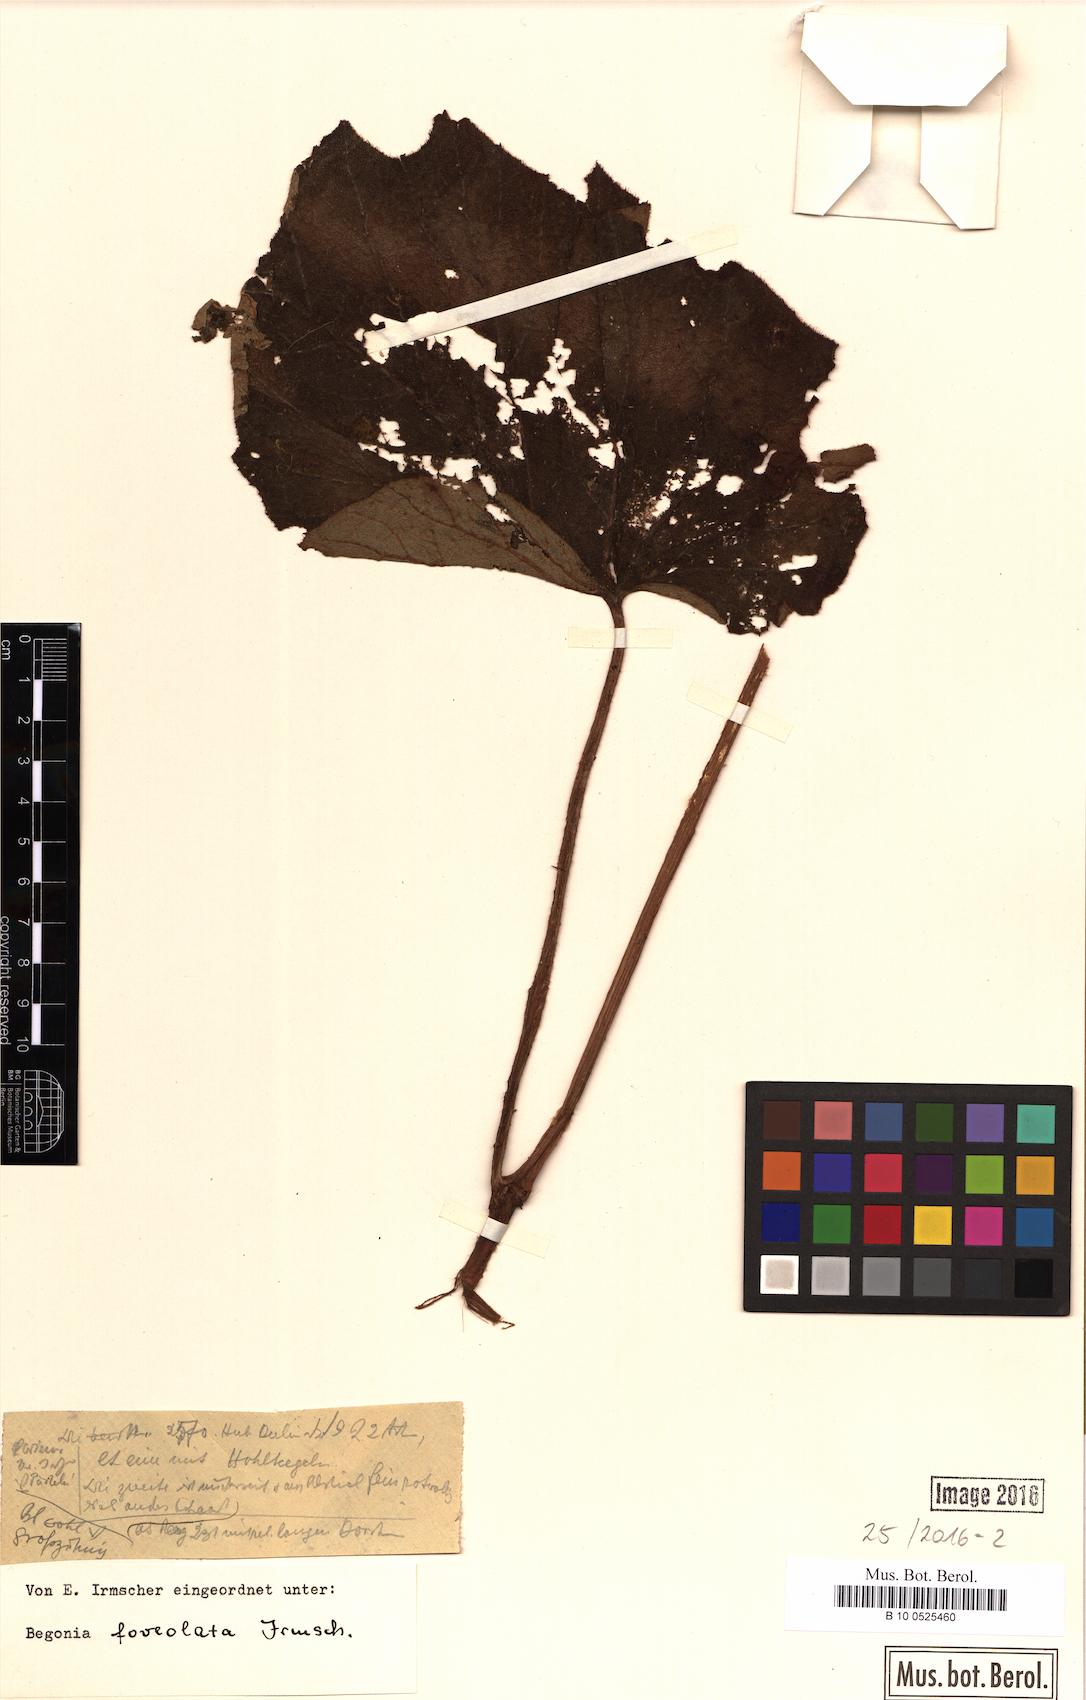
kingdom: Plantae
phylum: Tracheophyta
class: Magnoliopsida
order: Cucurbitales
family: Begoniaceae
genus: Begonia
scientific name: Begonia foveolata
